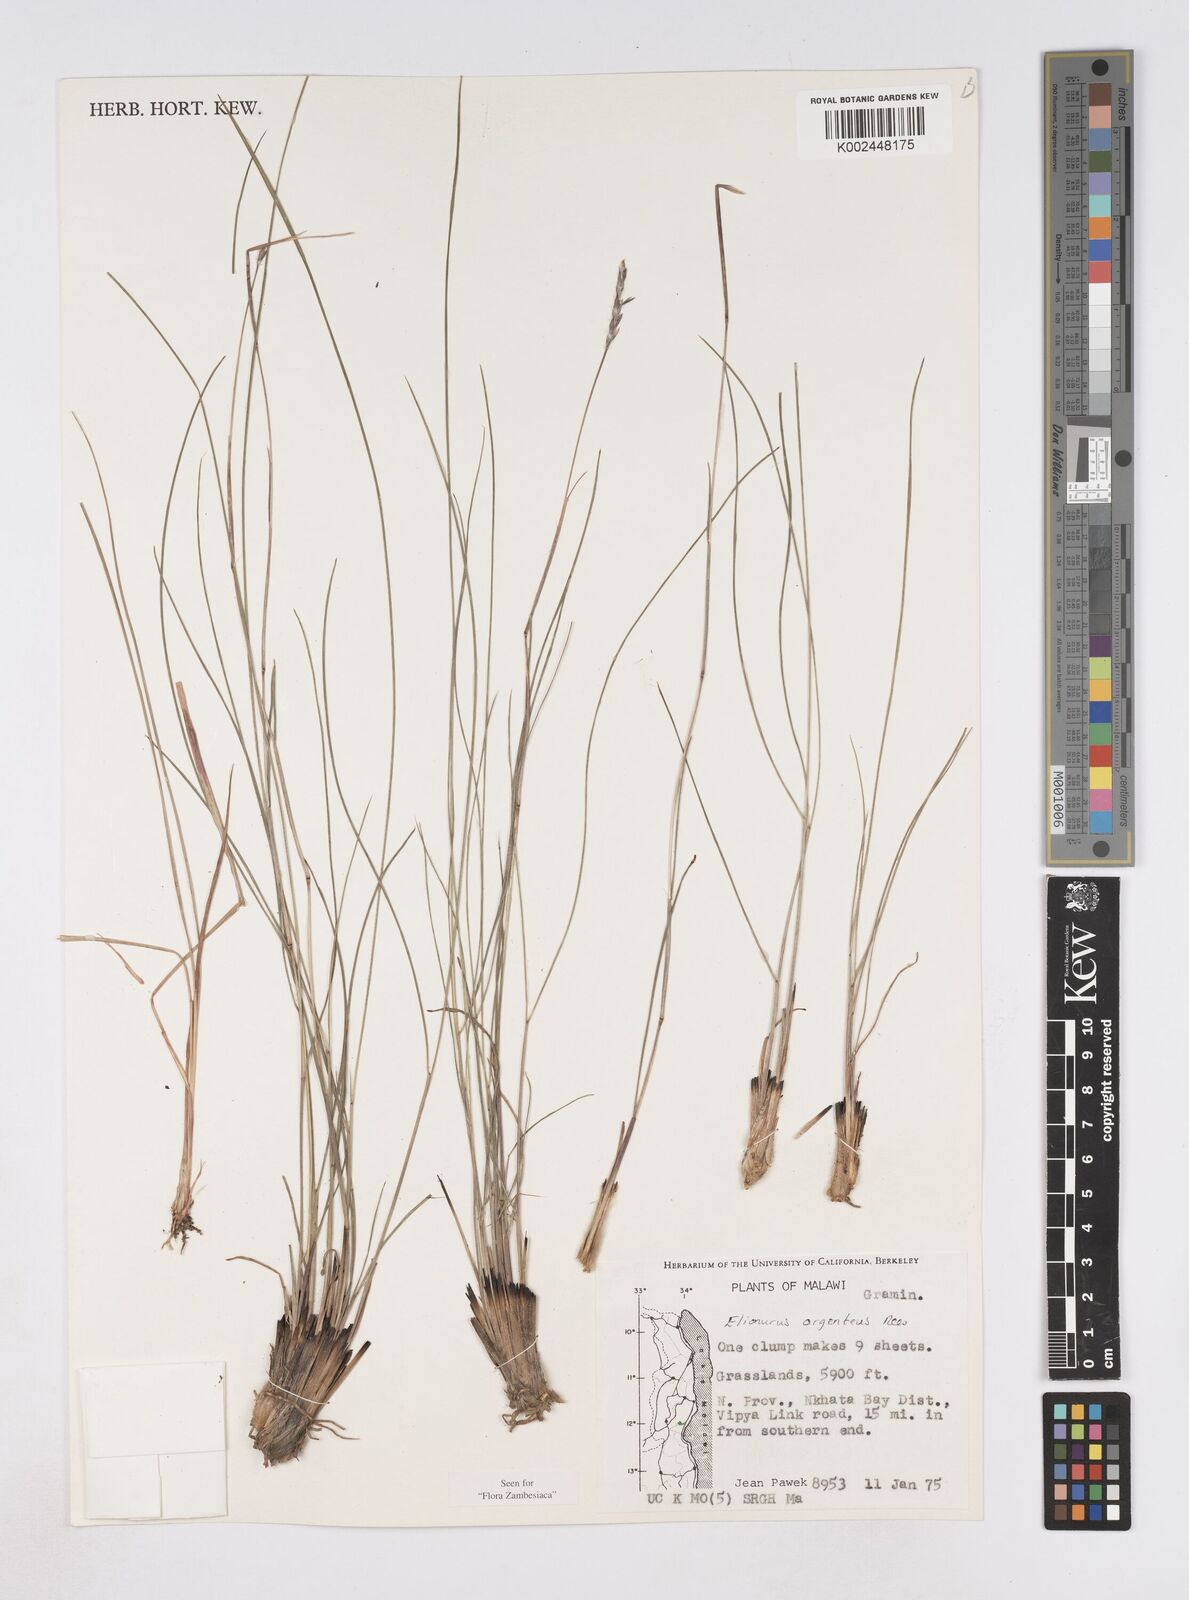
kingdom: Plantae
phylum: Tracheophyta
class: Liliopsida
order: Poales
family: Poaceae
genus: Elionurus
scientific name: Elionurus muticus
